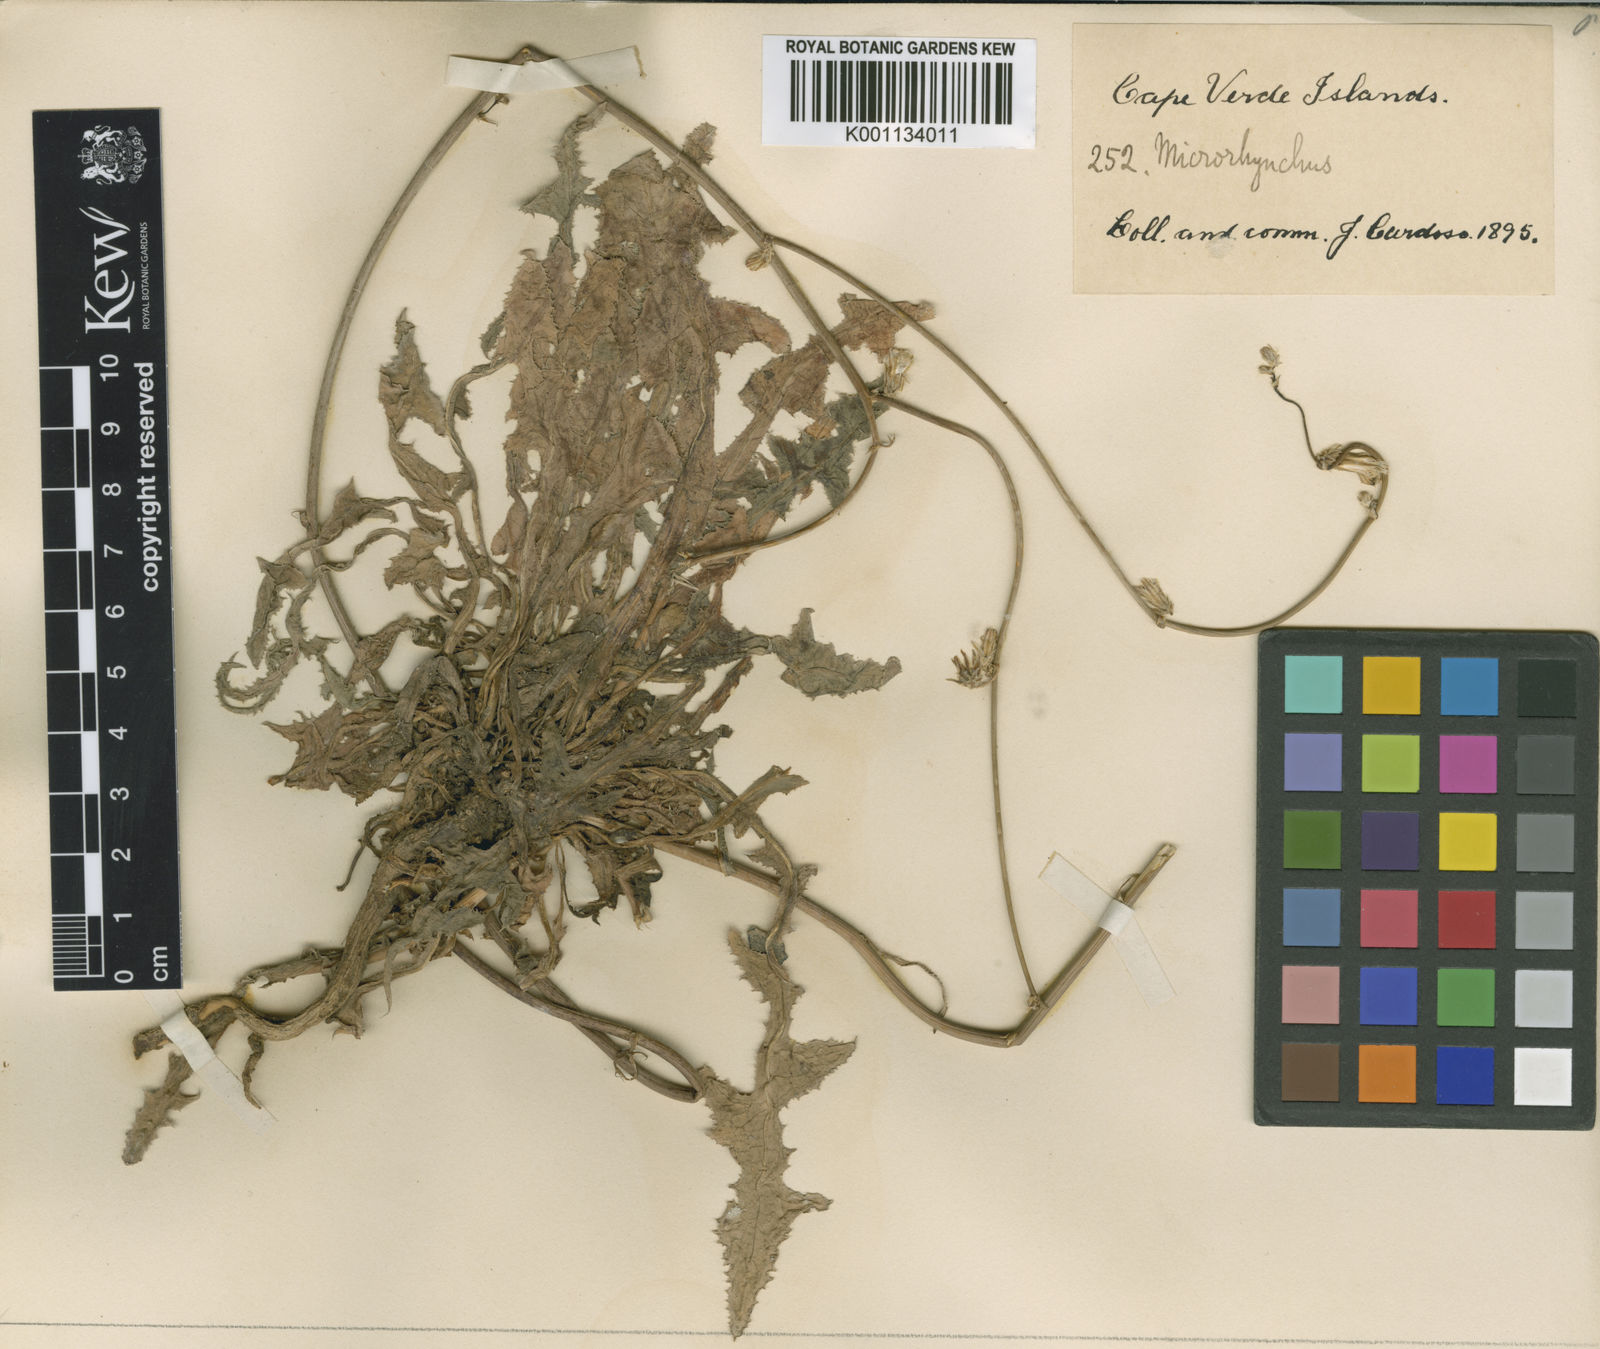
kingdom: Plantae
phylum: Tracheophyta
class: Magnoliopsida
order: Asterales
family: Asteraceae
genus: Launaea
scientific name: Launaea intybacea
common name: Achicoria azul
